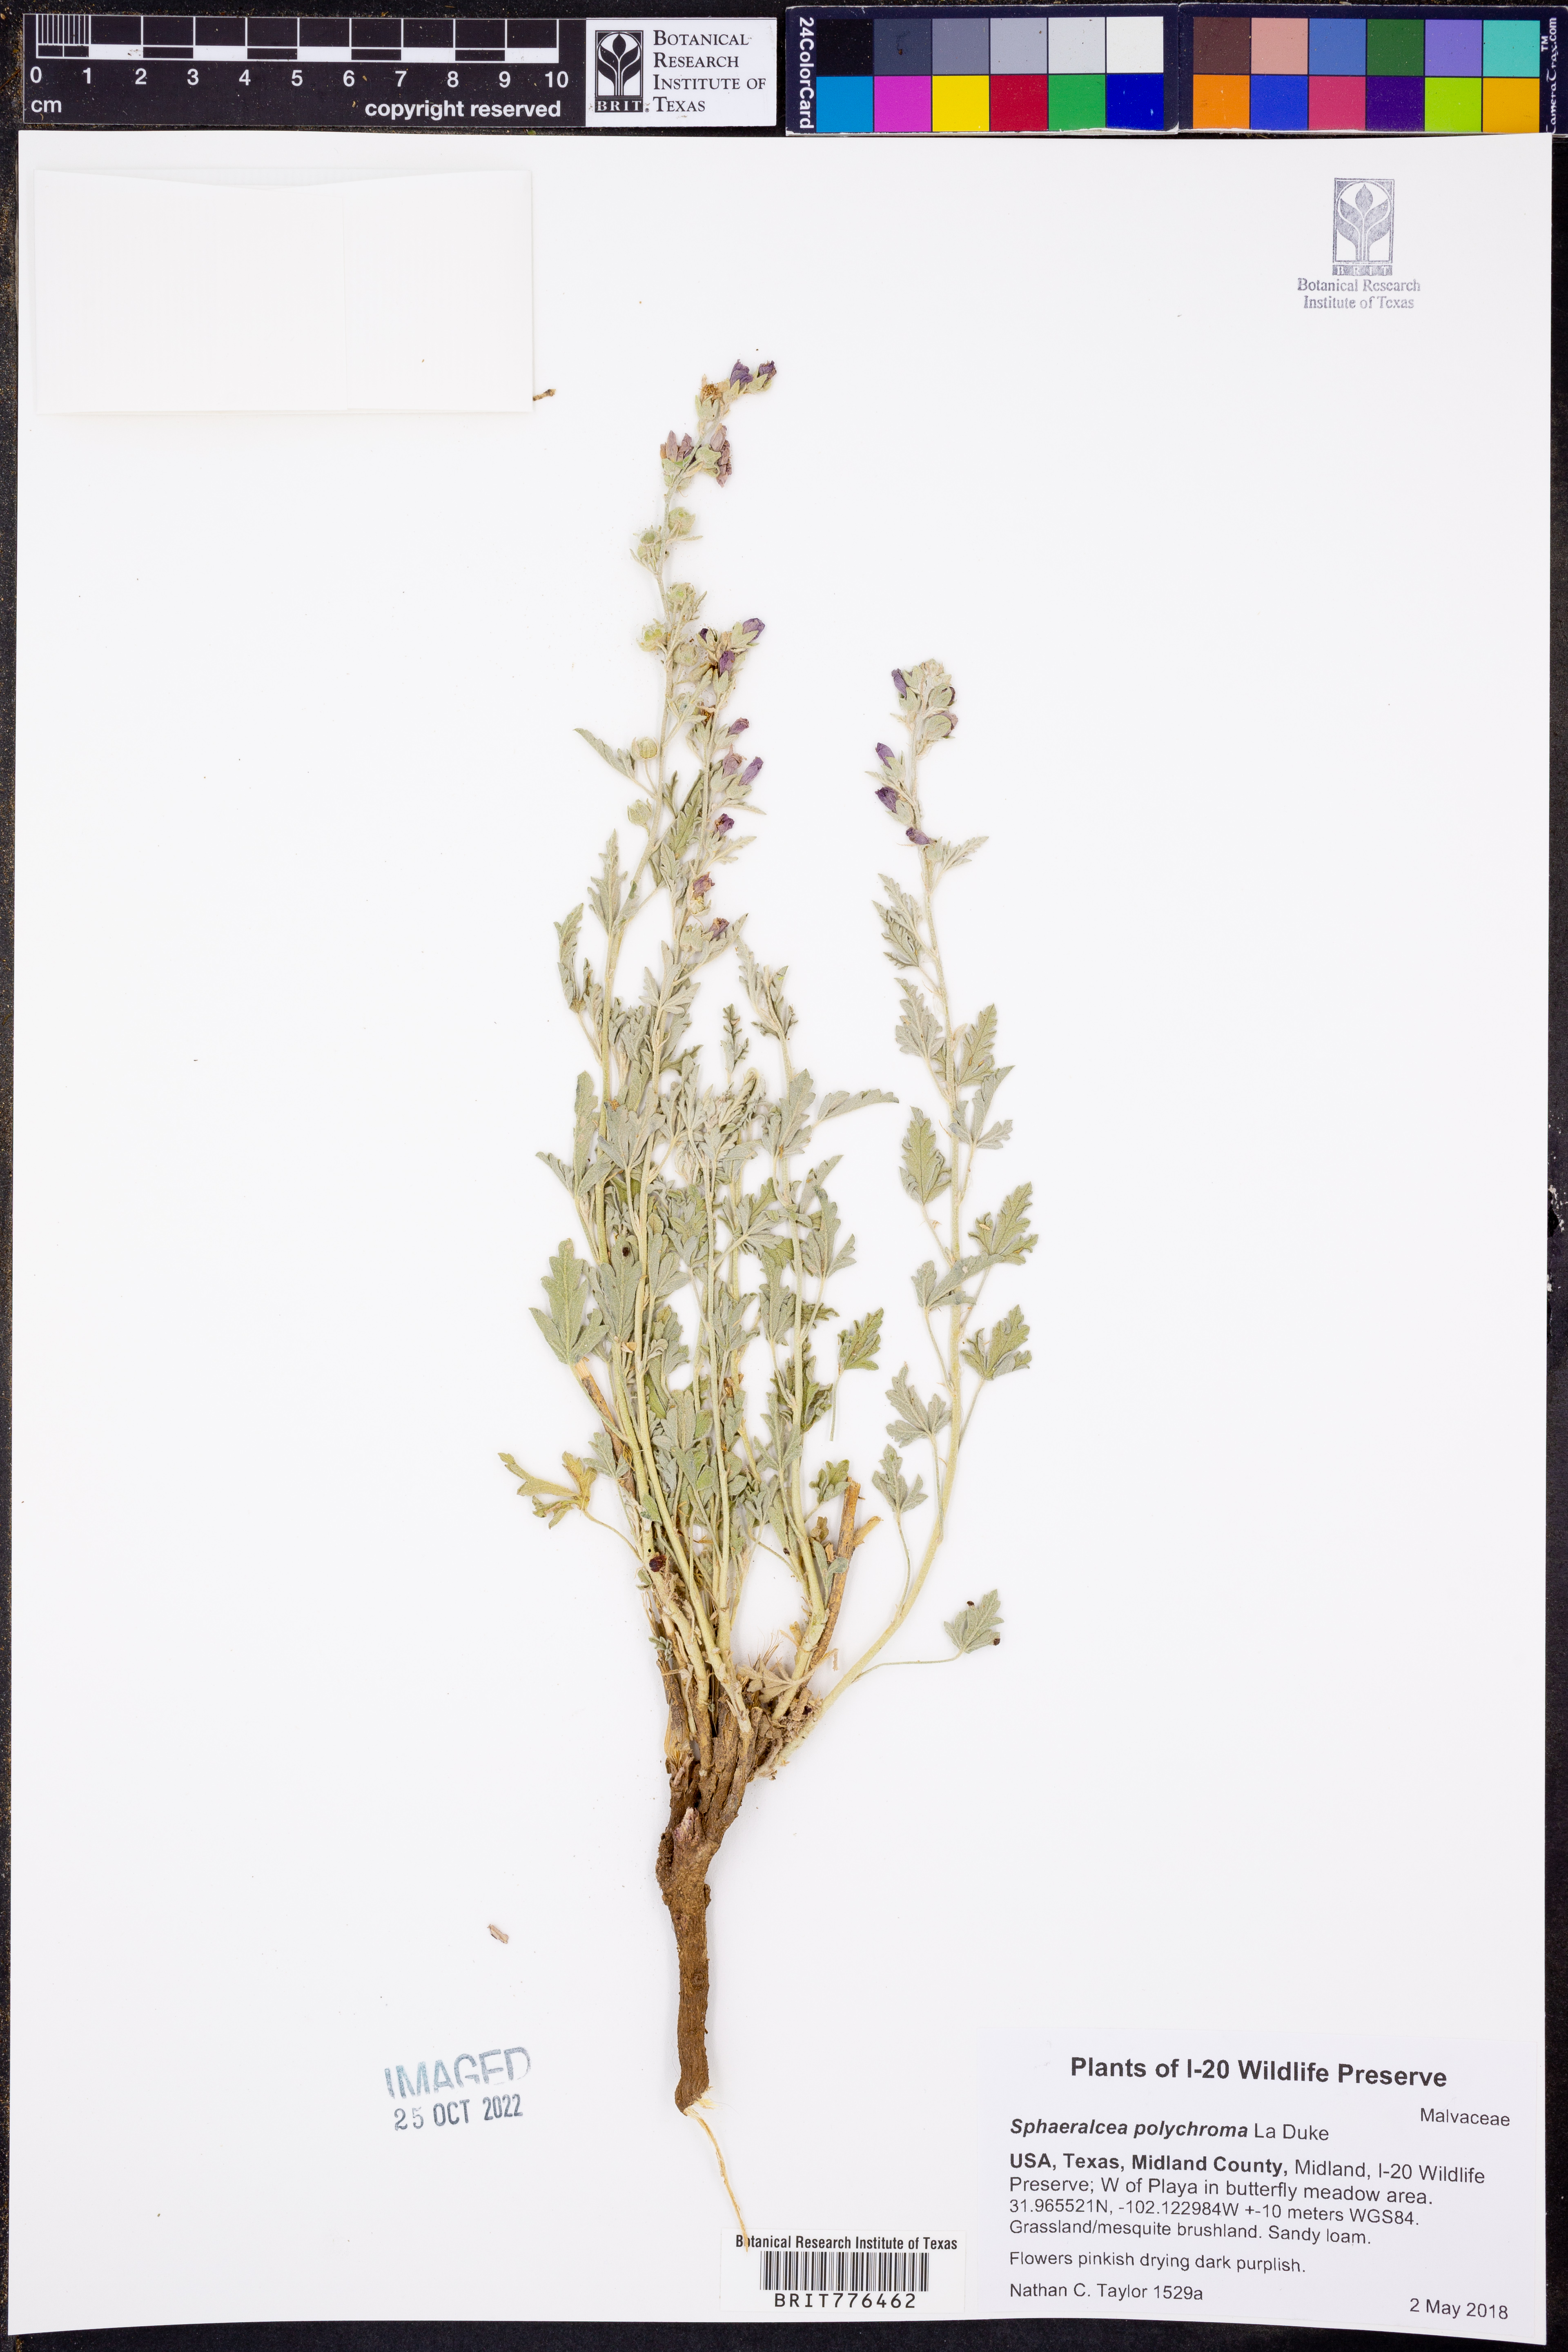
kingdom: Plantae
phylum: Tracheophyta
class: Magnoliopsida
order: Malvales
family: Malvaceae
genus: Sphaeralcea
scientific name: Sphaeralcea polychroma
